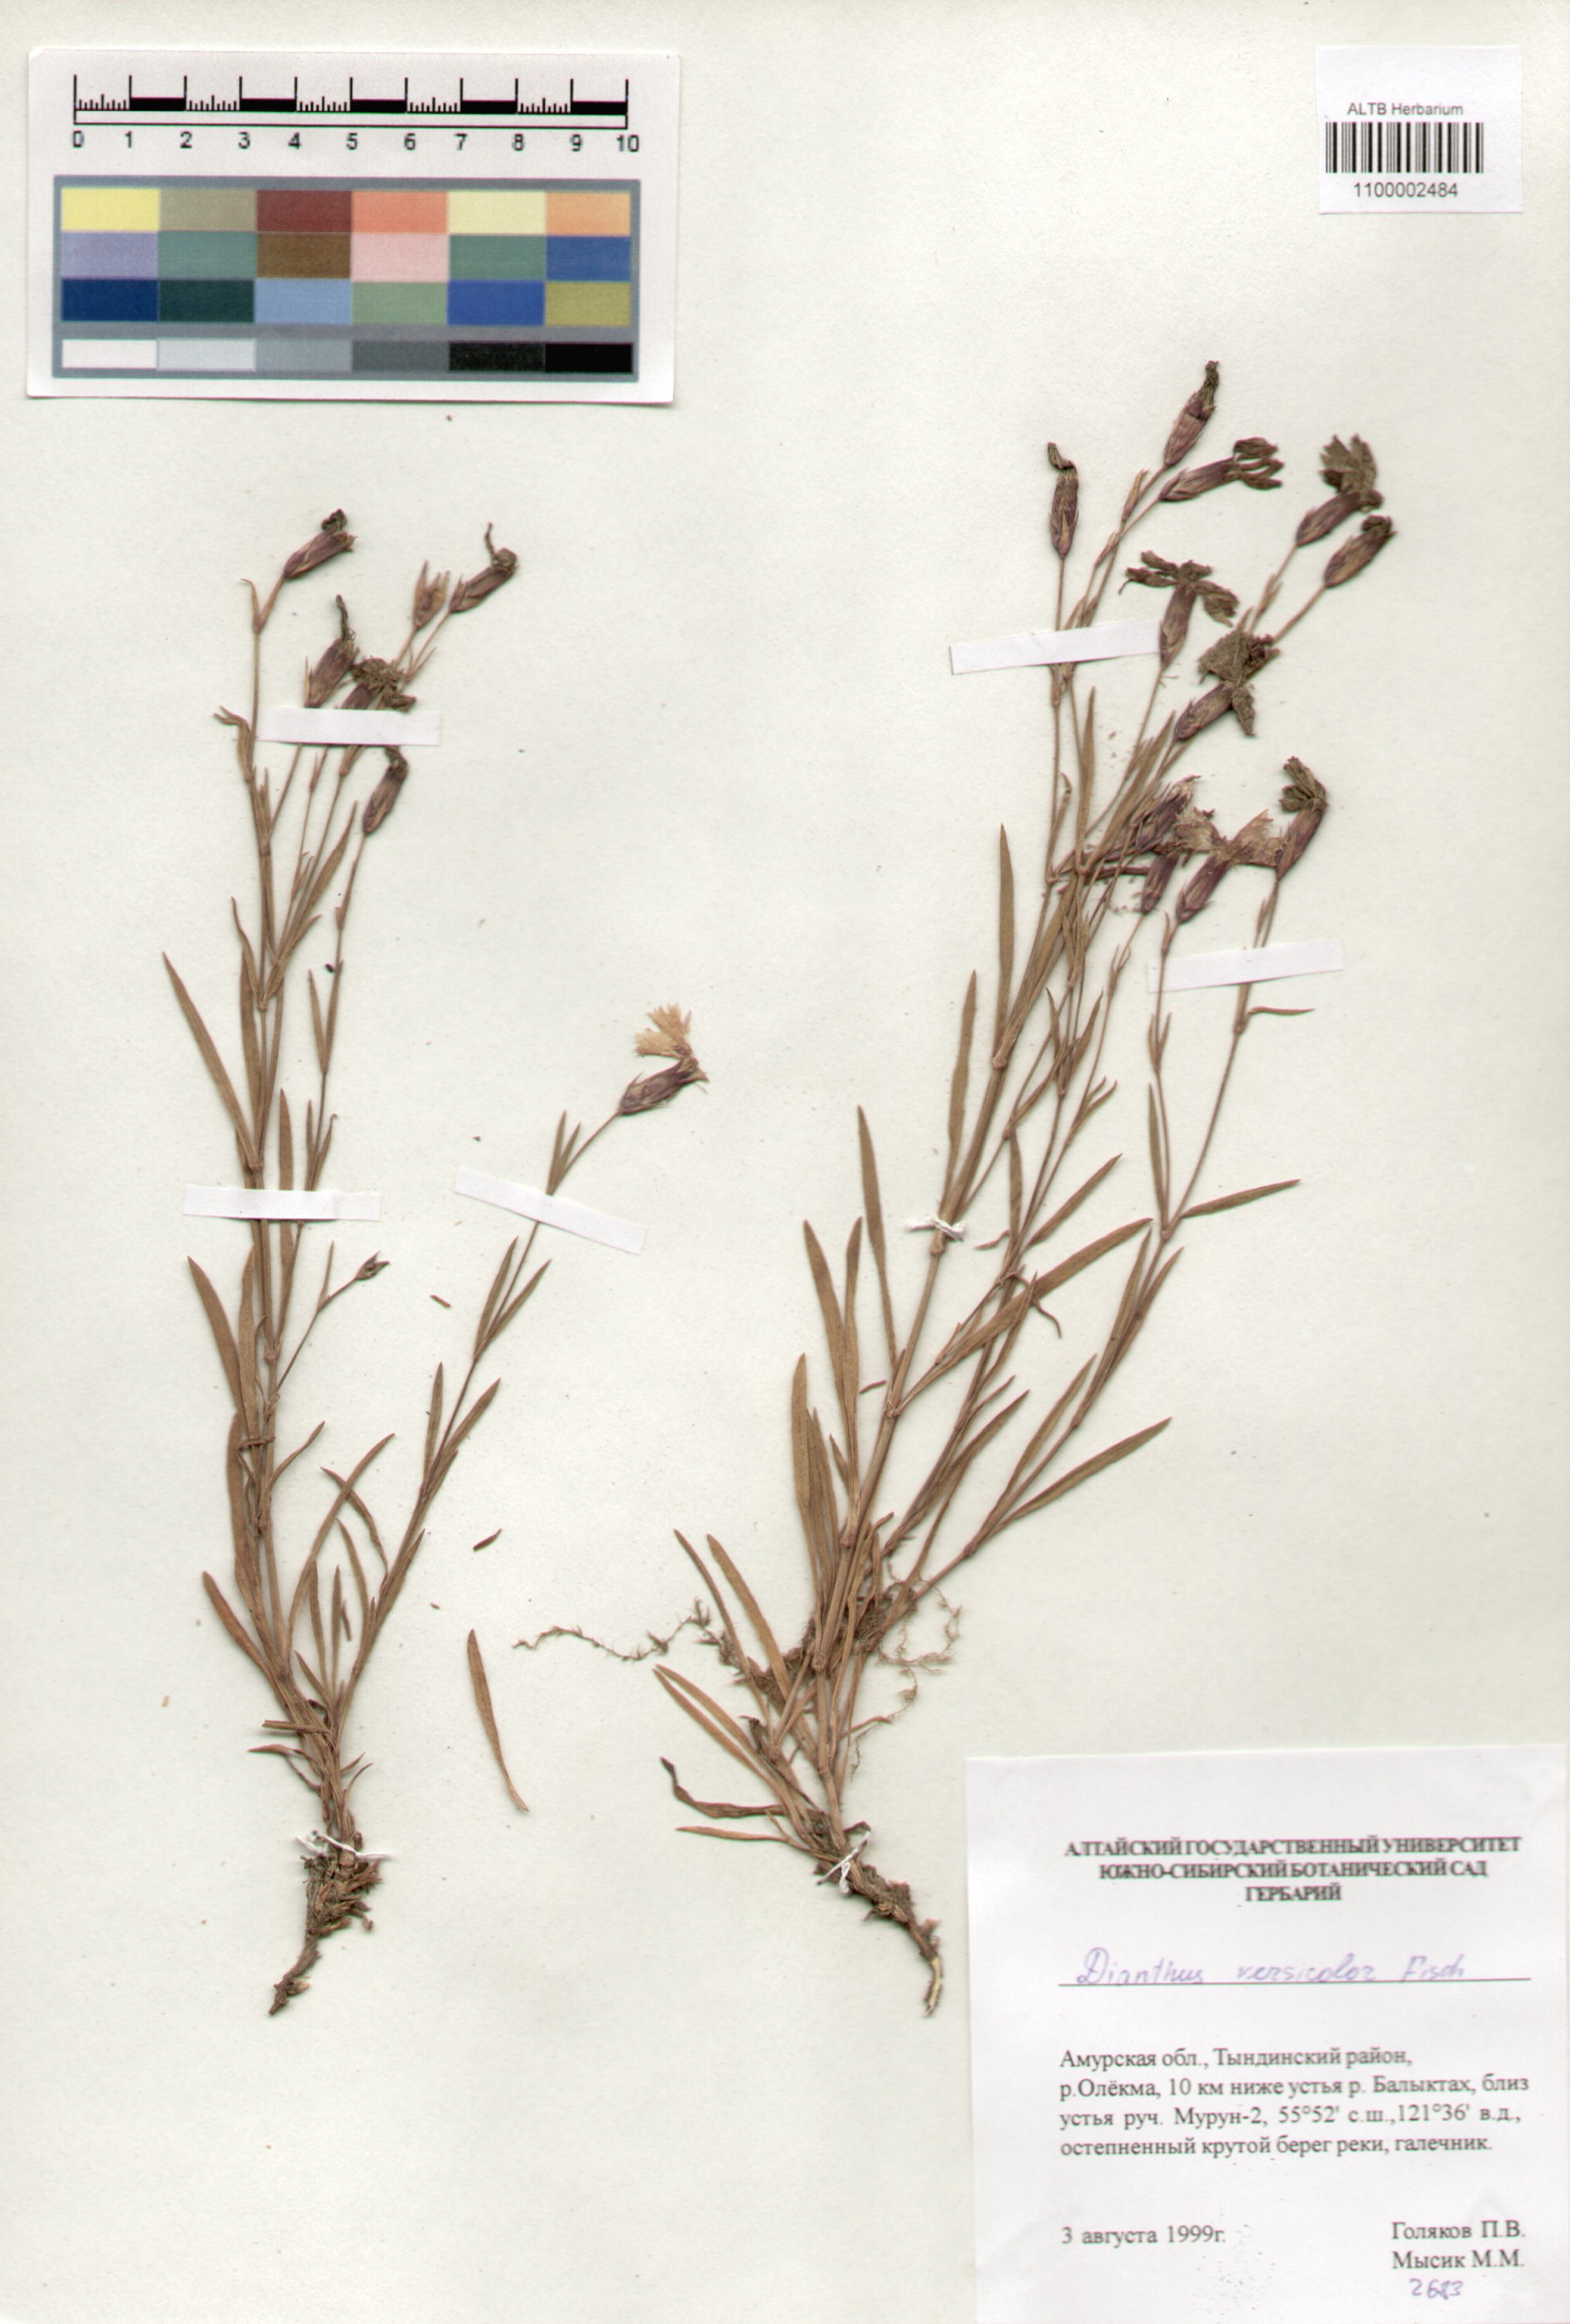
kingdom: Plantae
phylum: Tracheophyta
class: Magnoliopsida
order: Caryophyllales
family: Caryophyllaceae
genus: Dianthus
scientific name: Dianthus chinensis
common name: Rainbow pink
